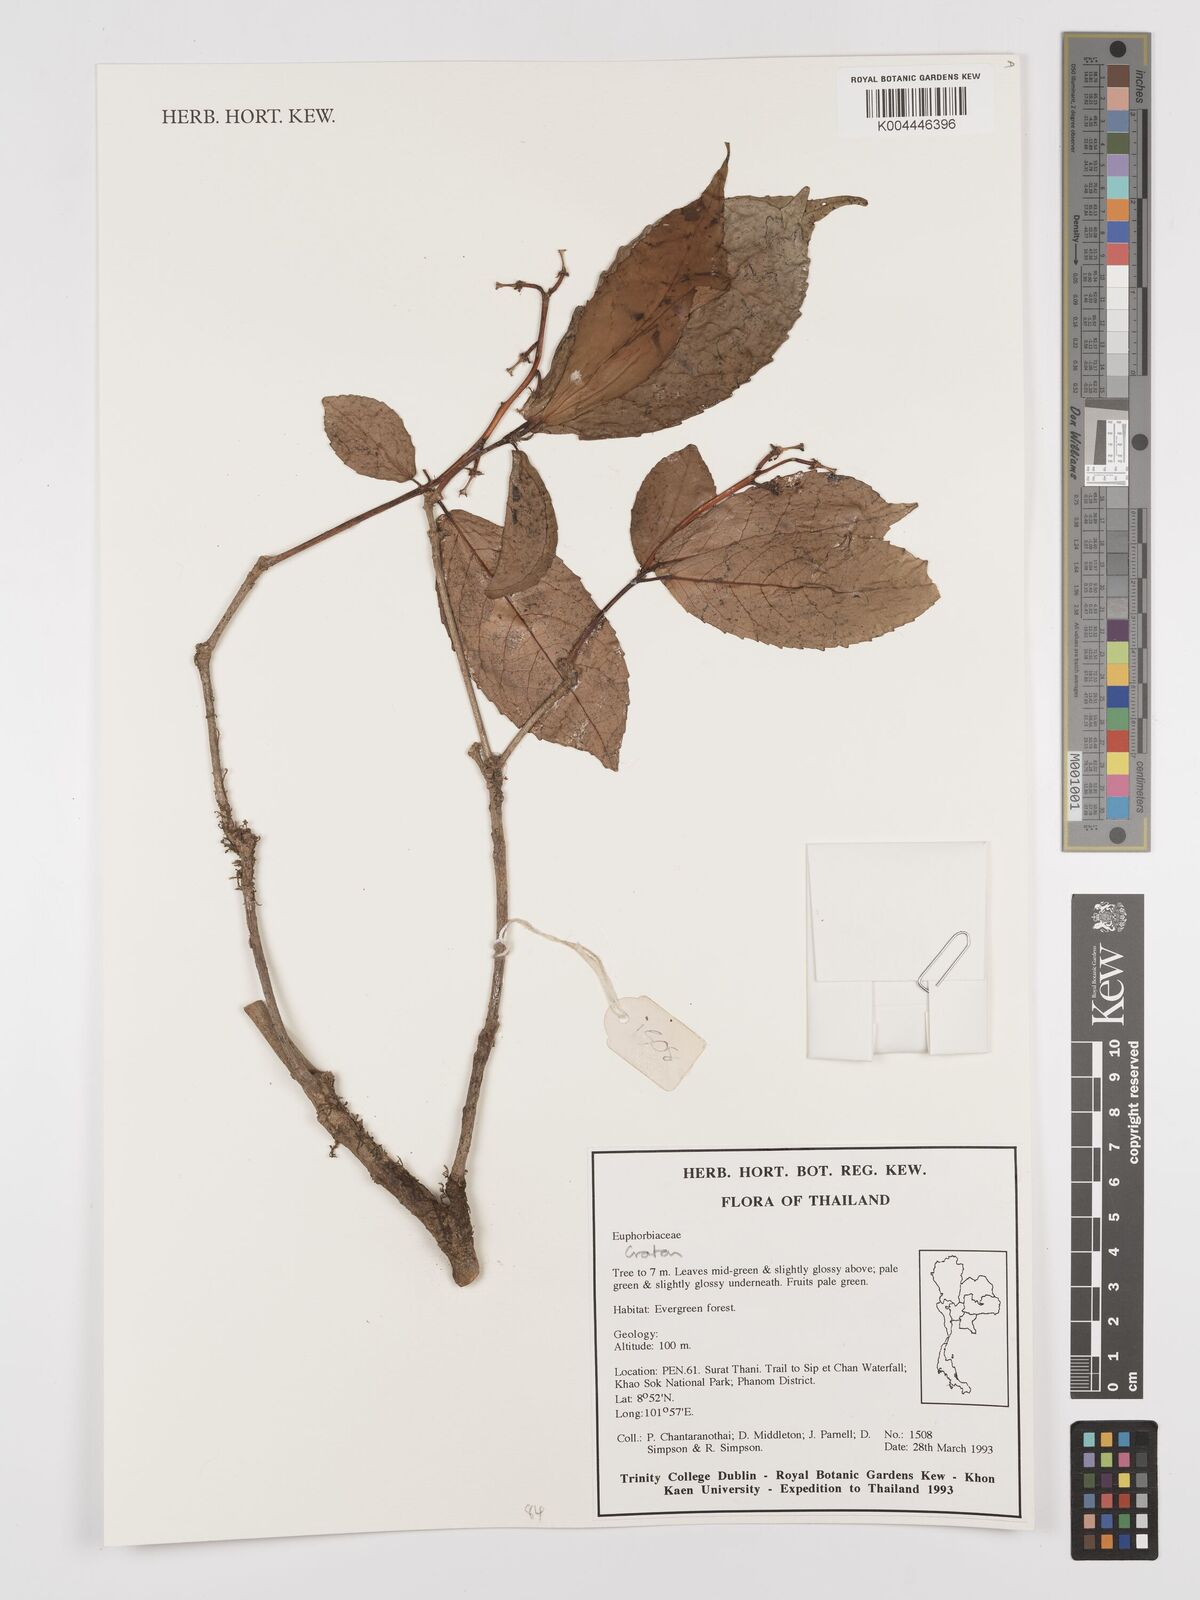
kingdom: Plantae
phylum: Tracheophyta
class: Magnoliopsida
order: Malpighiales
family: Euphorbiaceae
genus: Croton
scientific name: Croton
